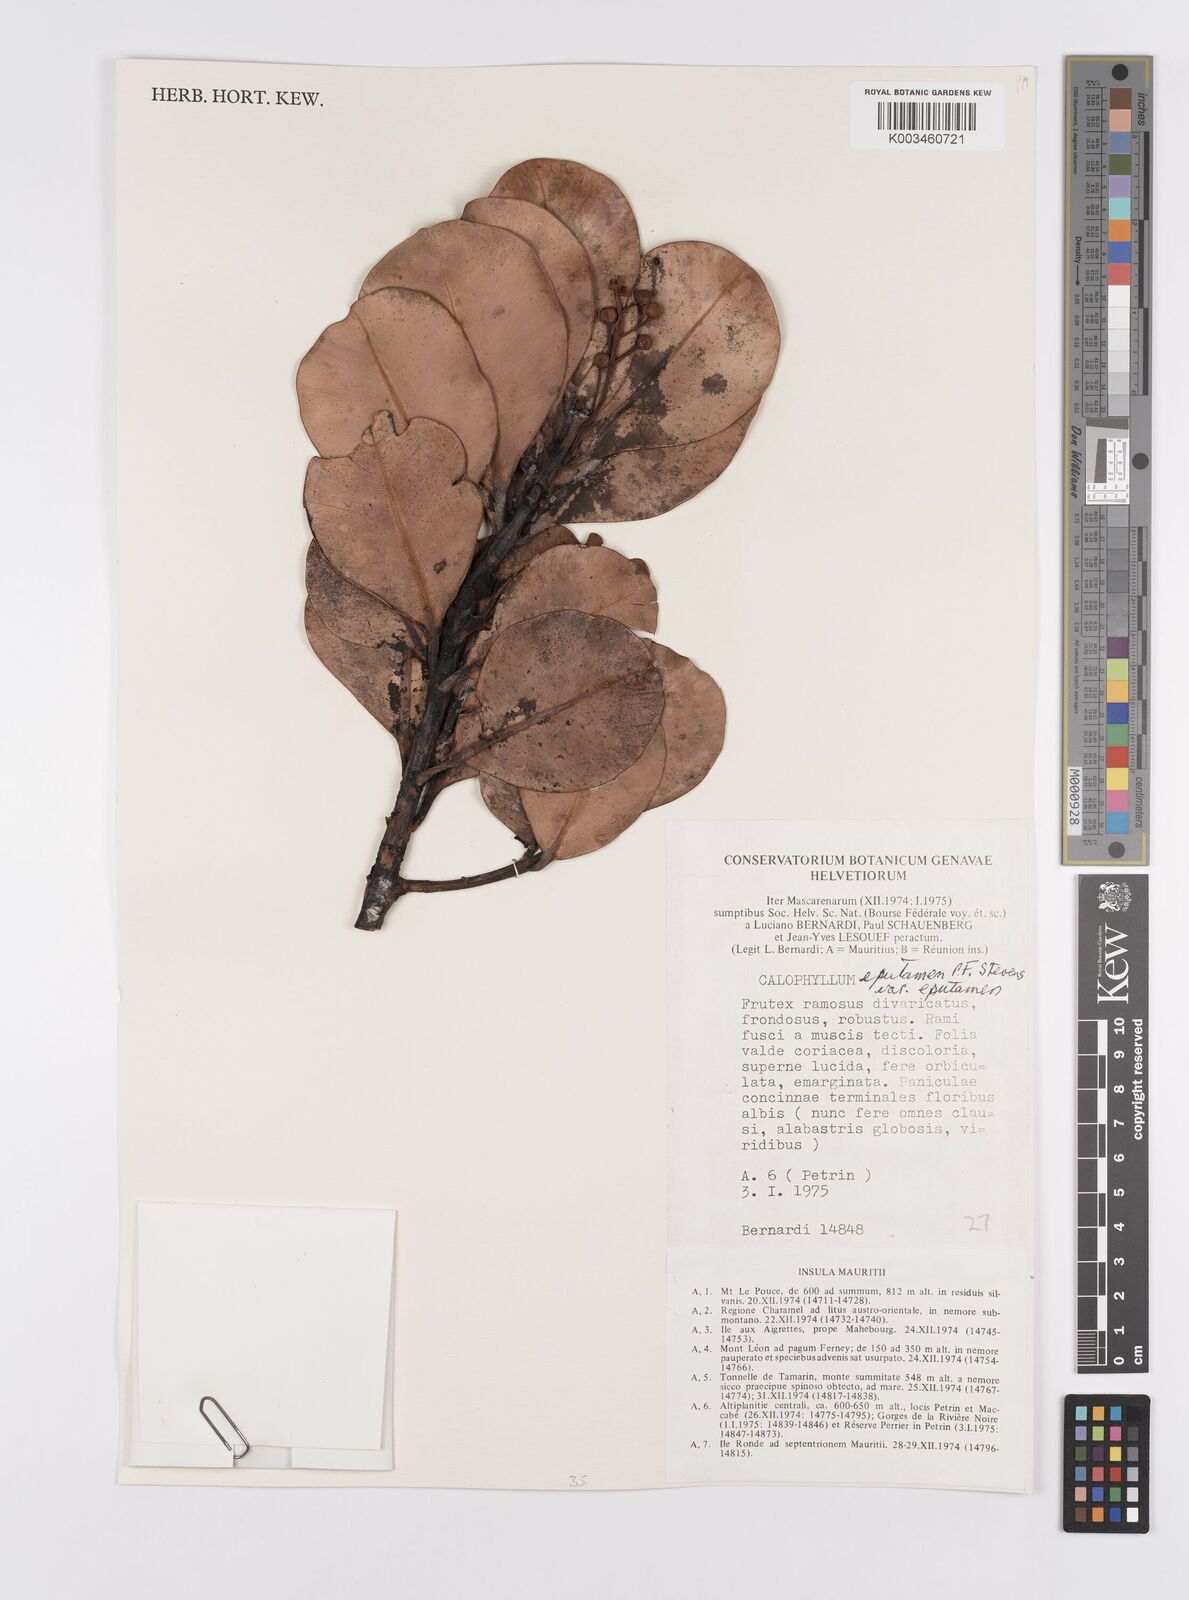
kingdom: Plantae
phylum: Tracheophyta
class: Magnoliopsida
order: Malpighiales
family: Calophyllaceae
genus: Calophyllum
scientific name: Calophyllum eputamen
